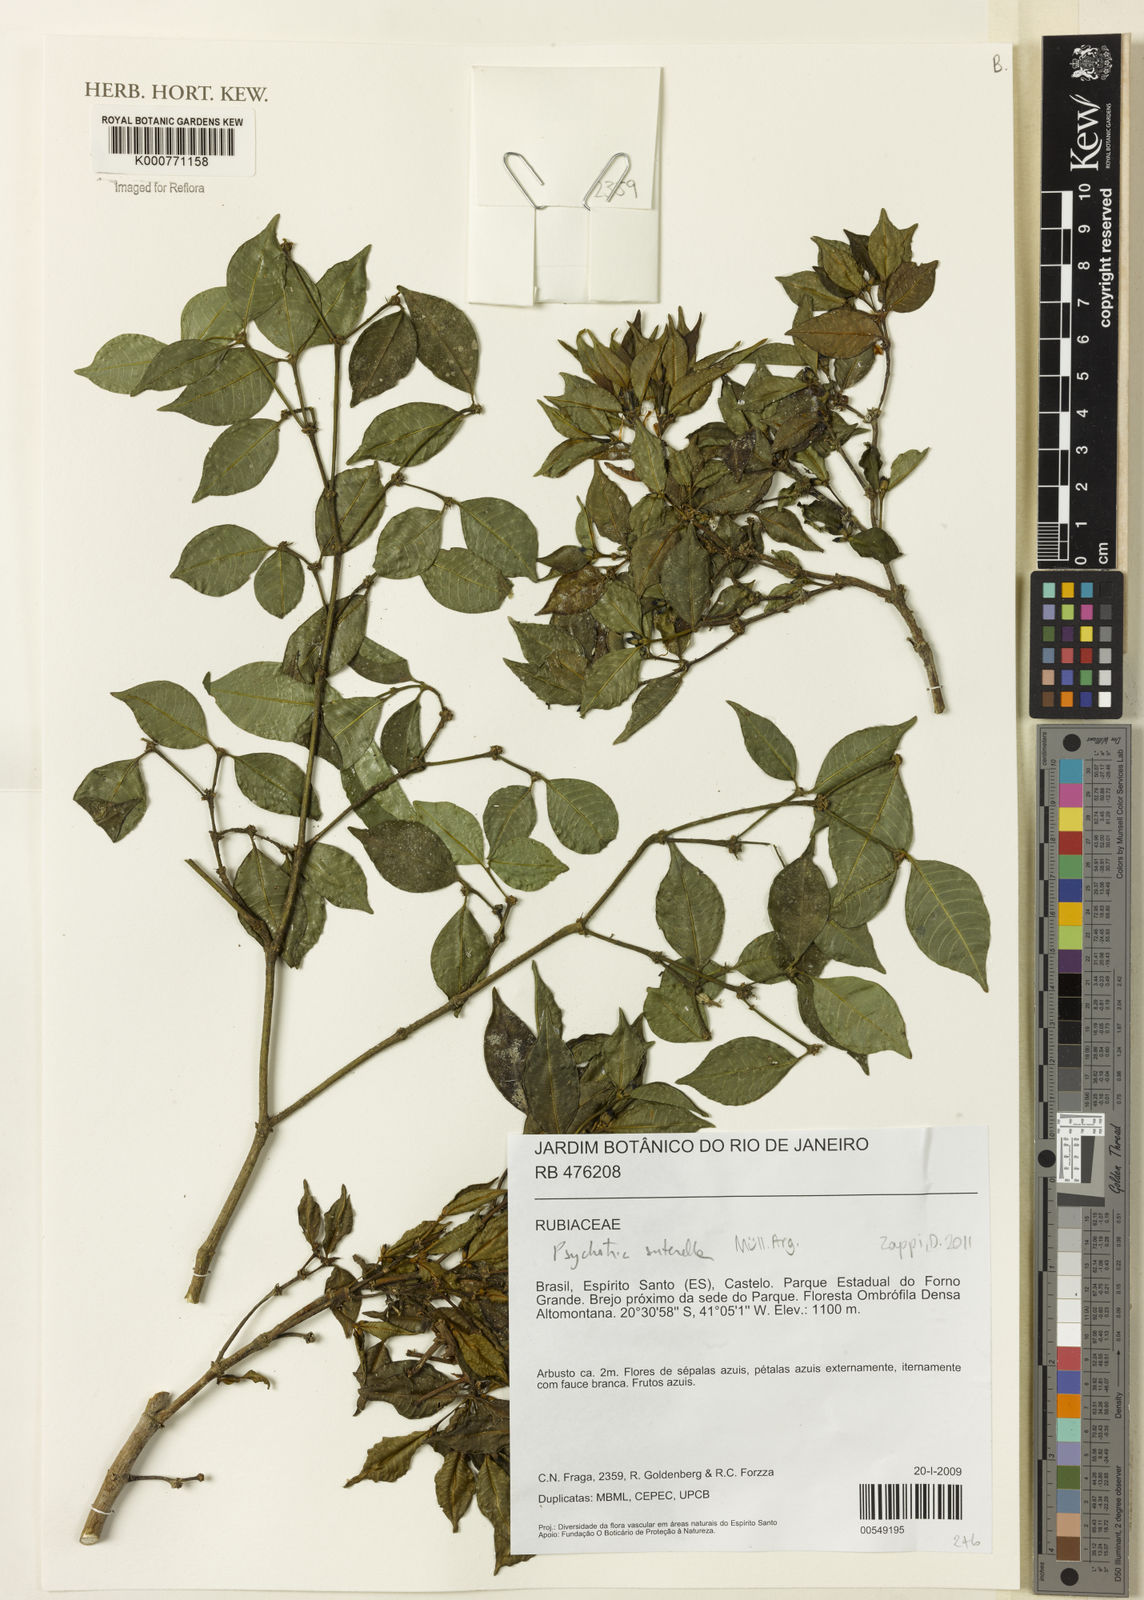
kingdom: Plantae
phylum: Tracheophyta
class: Magnoliopsida
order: Gentianales
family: Rubiaceae
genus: Psychotria
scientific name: Psychotria
